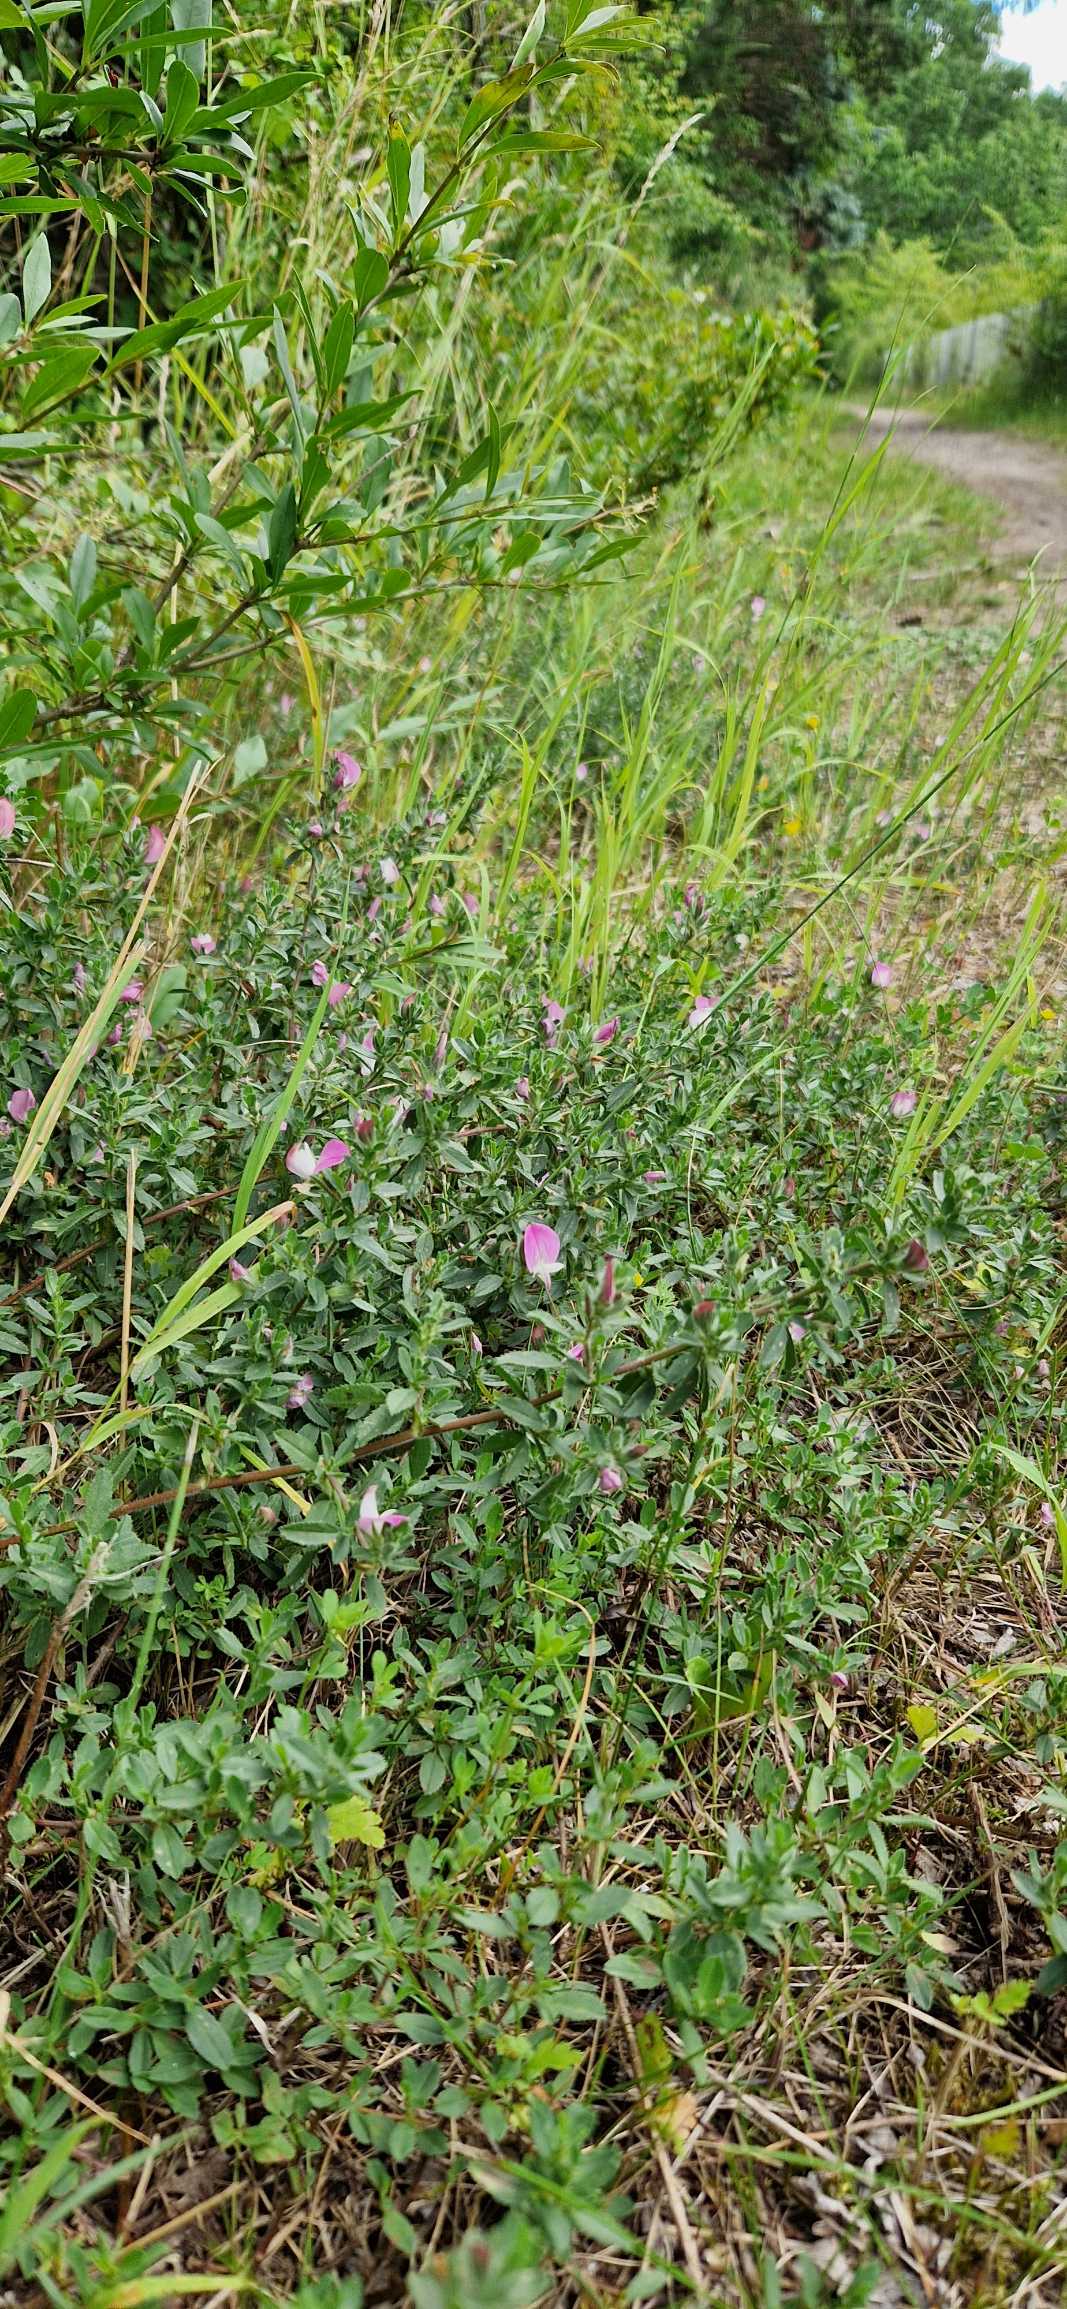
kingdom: Plantae
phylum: Tracheophyta
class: Magnoliopsida
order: Fabales
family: Fabaceae
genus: Ononis
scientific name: Ononis spinosa
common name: Mark-krageklo
